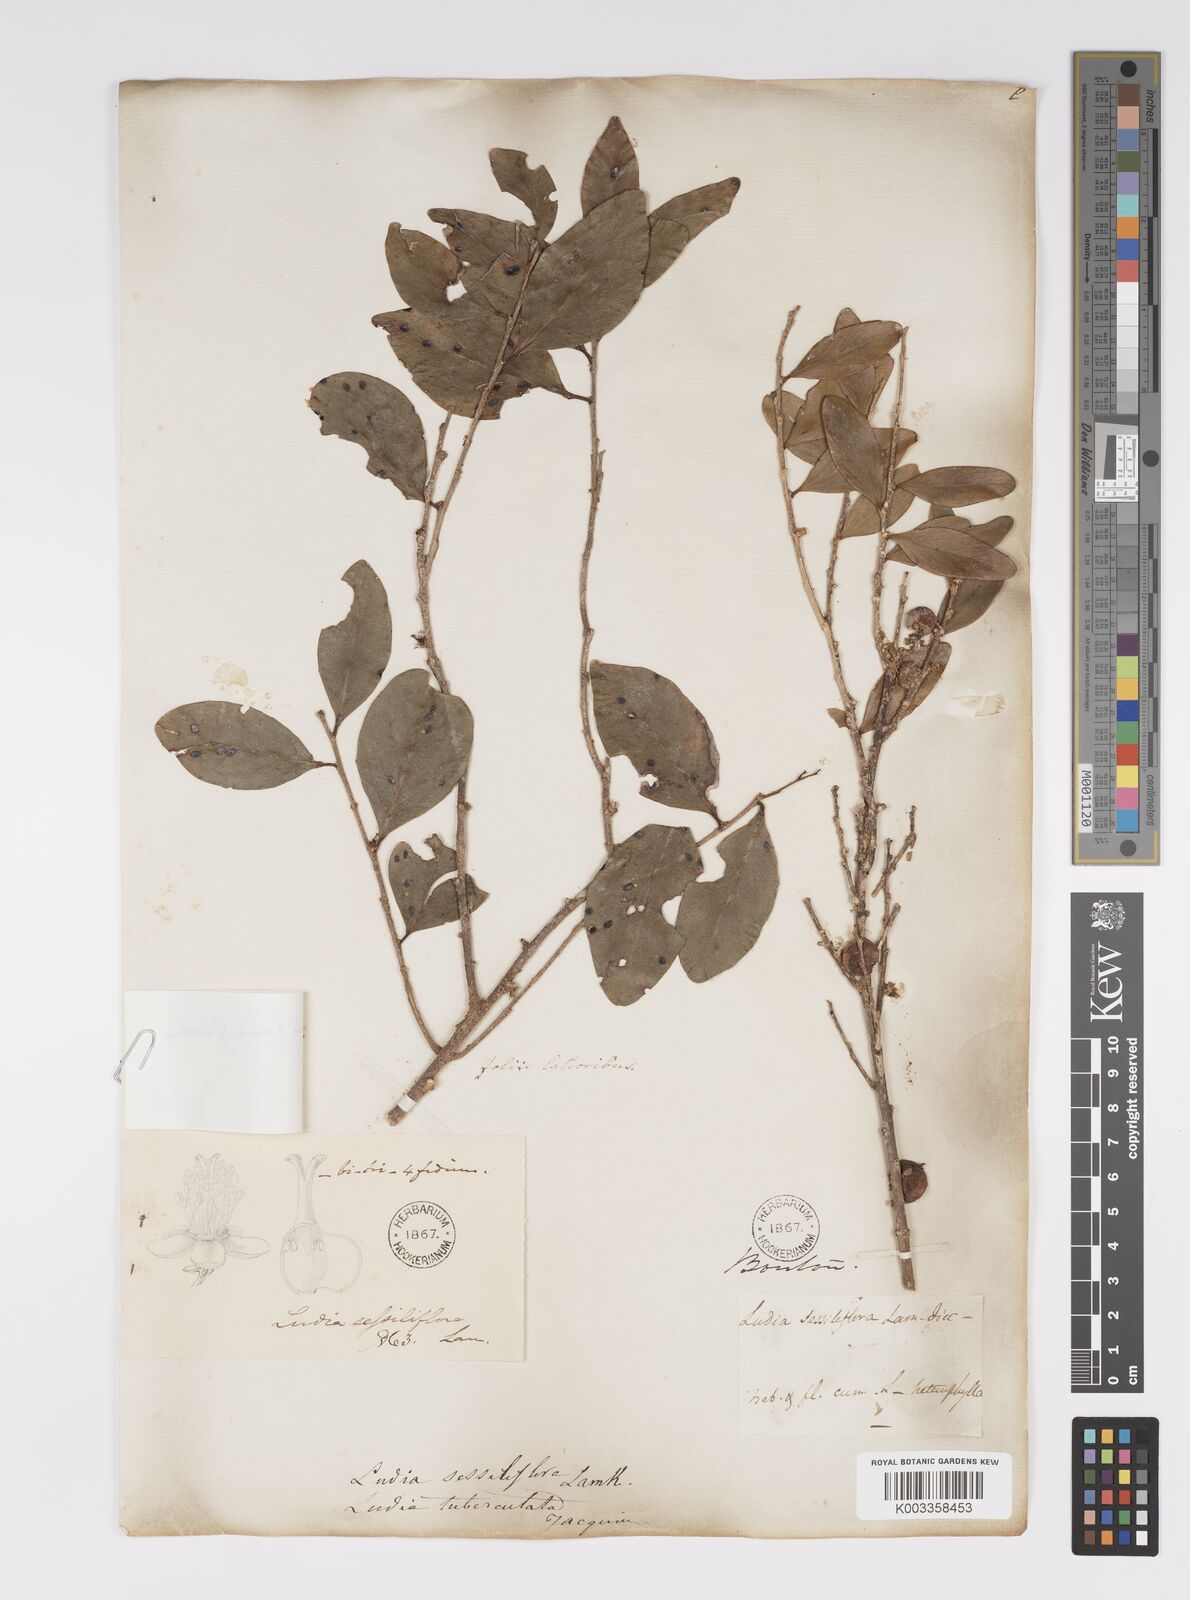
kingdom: Plantae
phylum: Tracheophyta
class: Magnoliopsida
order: Malpighiales
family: Salicaceae
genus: Ludia
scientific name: Ludia mauritiana
